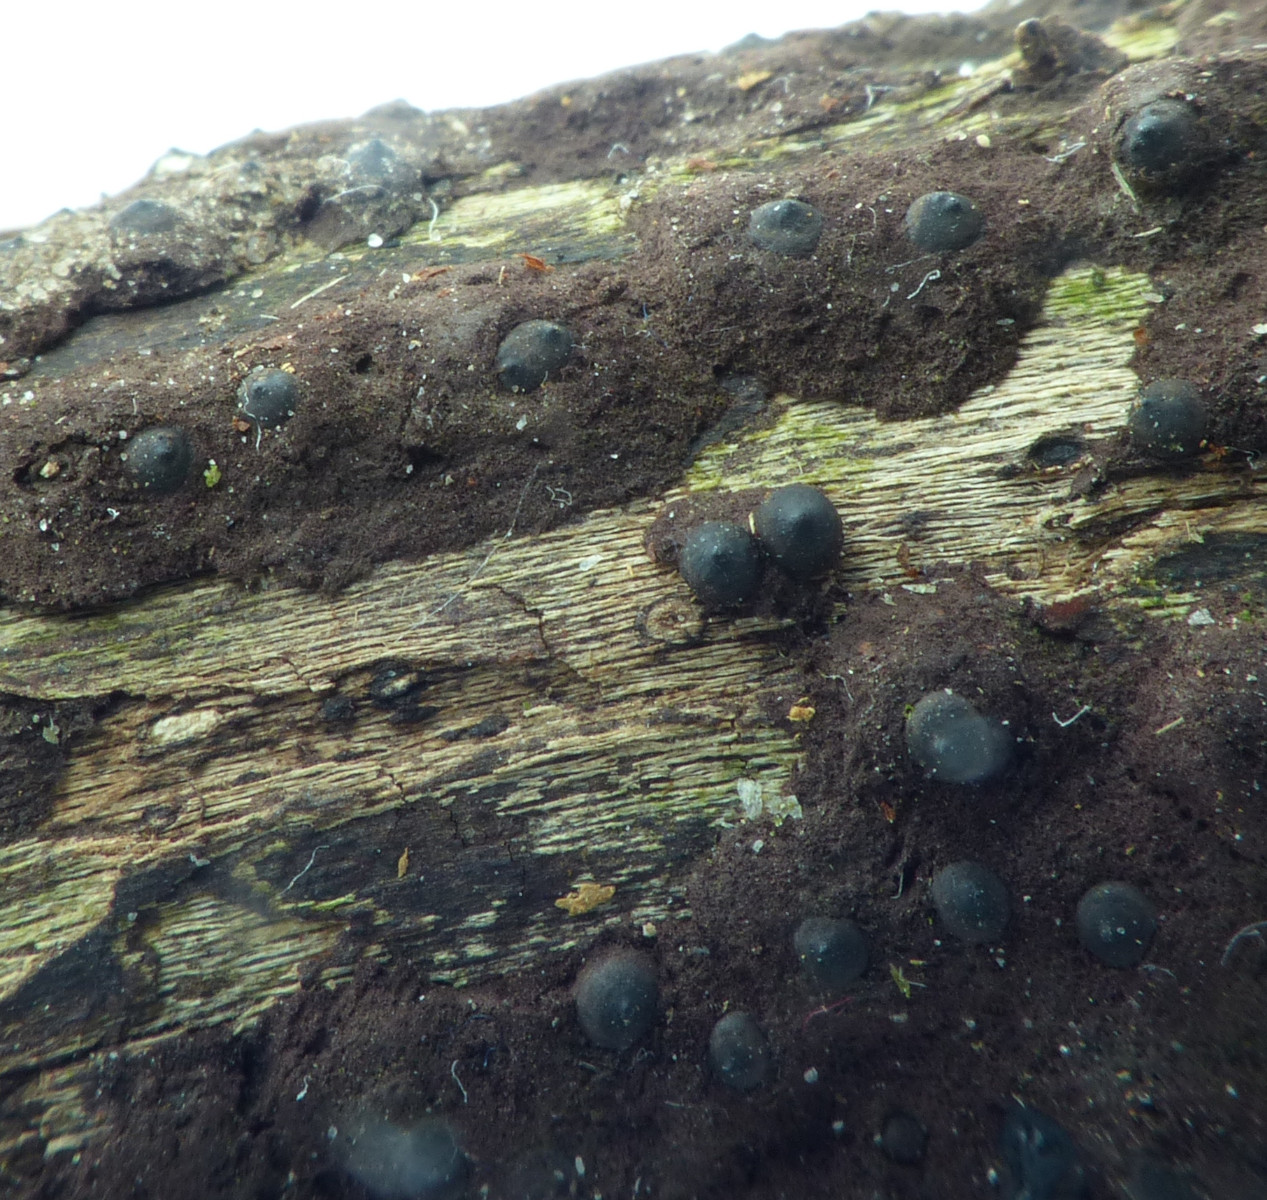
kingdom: Fungi
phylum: Ascomycota
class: Sordariomycetes
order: Xylariales
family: Xylariaceae
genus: Rosellinia
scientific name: Rosellinia
